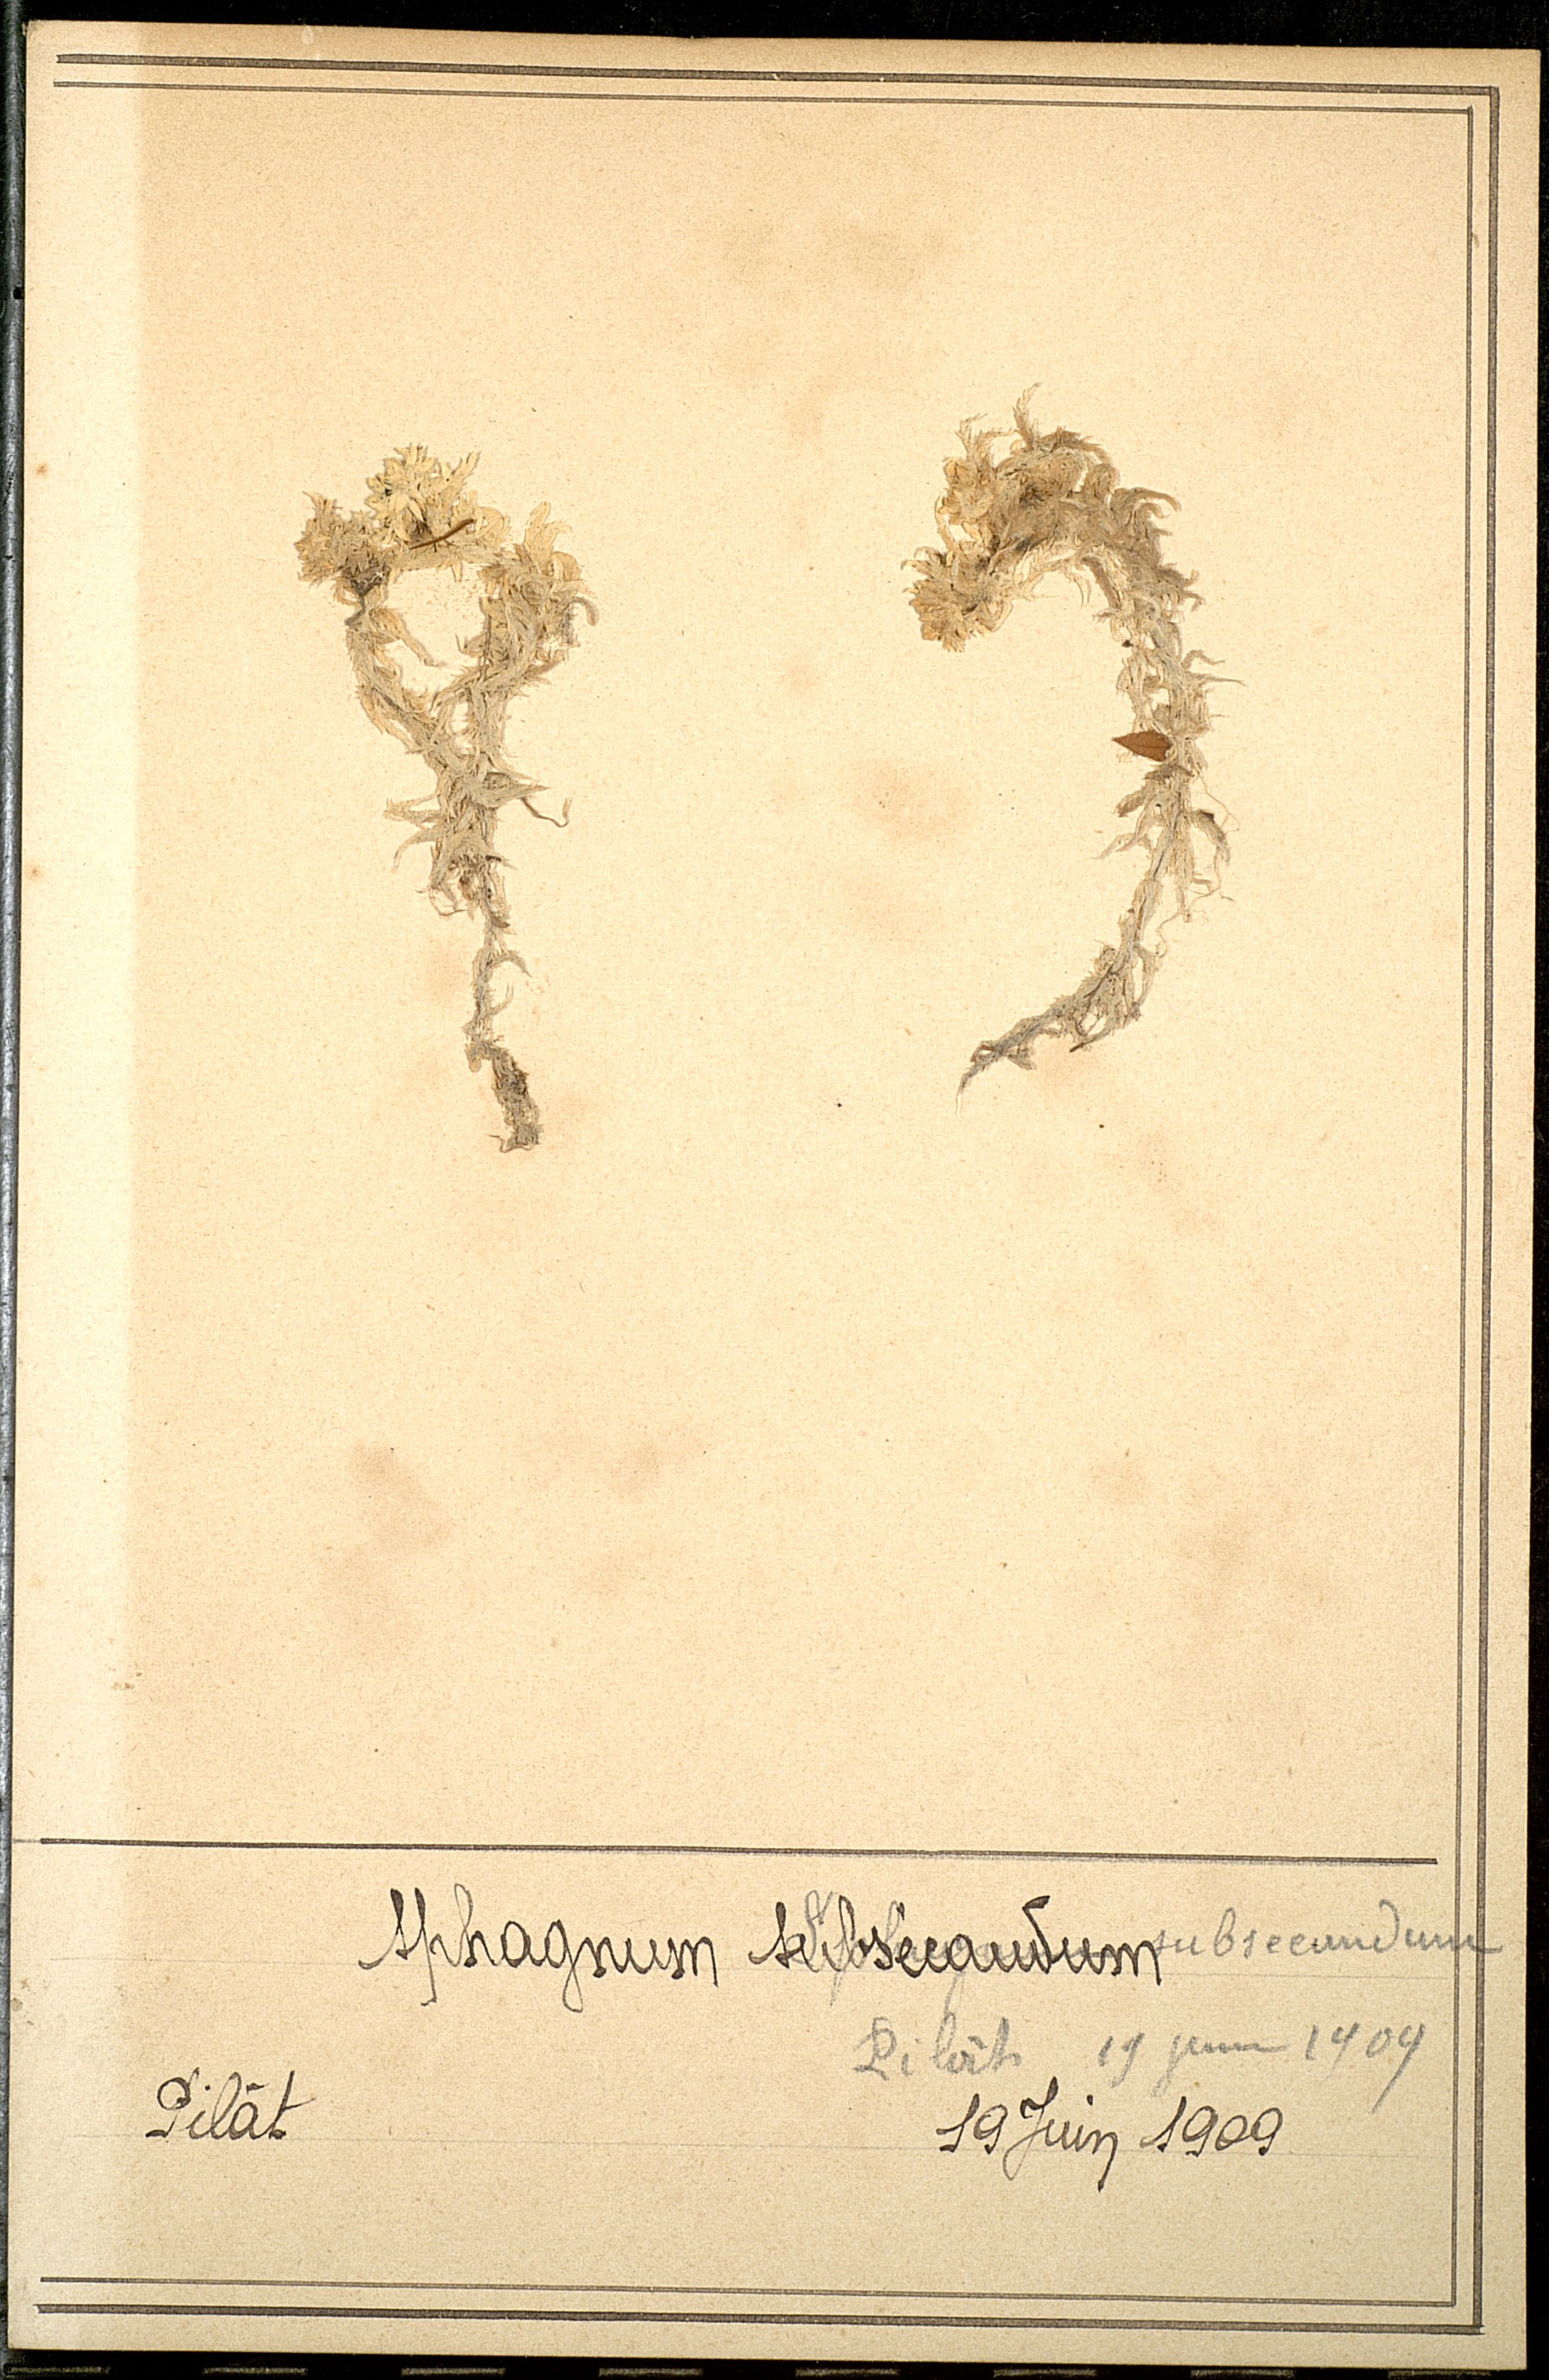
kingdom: Plantae
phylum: Bryophyta
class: Sphagnopsida
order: Sphagnales
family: Sphagnaceae
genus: Sphagnum
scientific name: Sphagnum subsecundum
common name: Orange peat moss
